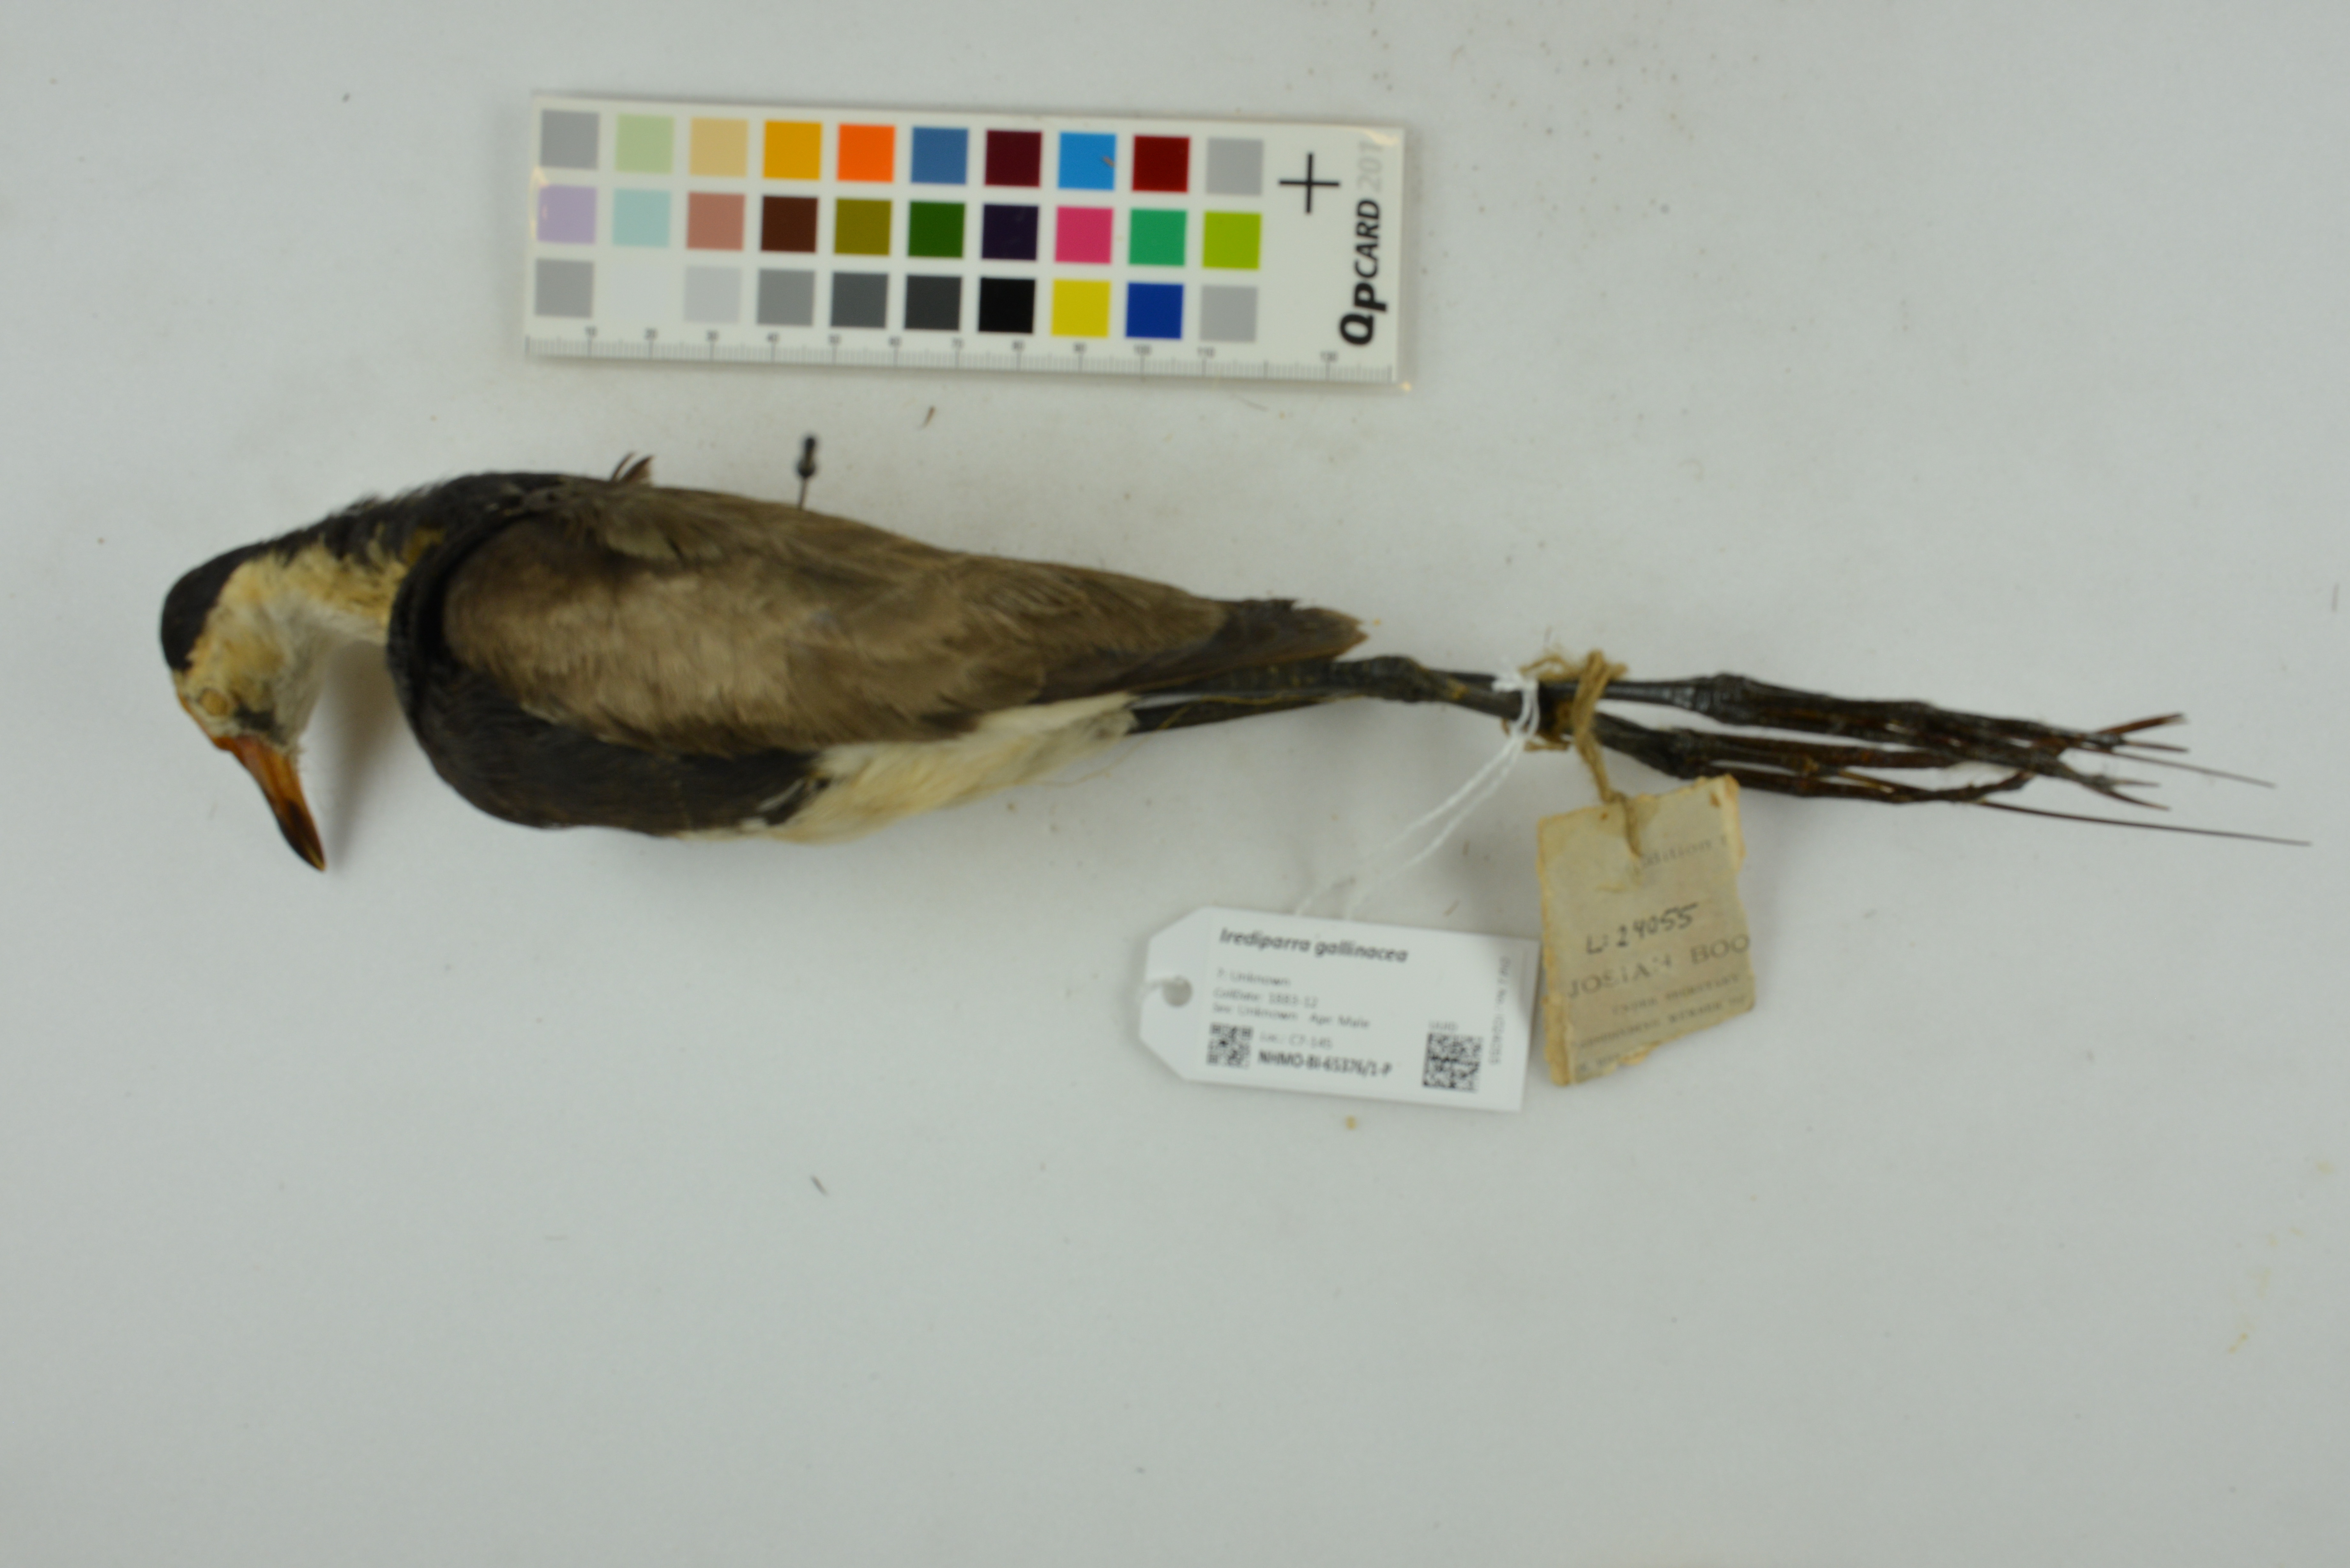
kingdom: Animalia
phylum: Chordata
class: Aves
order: Charadriiformes
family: Jacanidae
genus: Irediparra
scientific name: Irediparra gallinacea
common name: Comb-crested jacana
